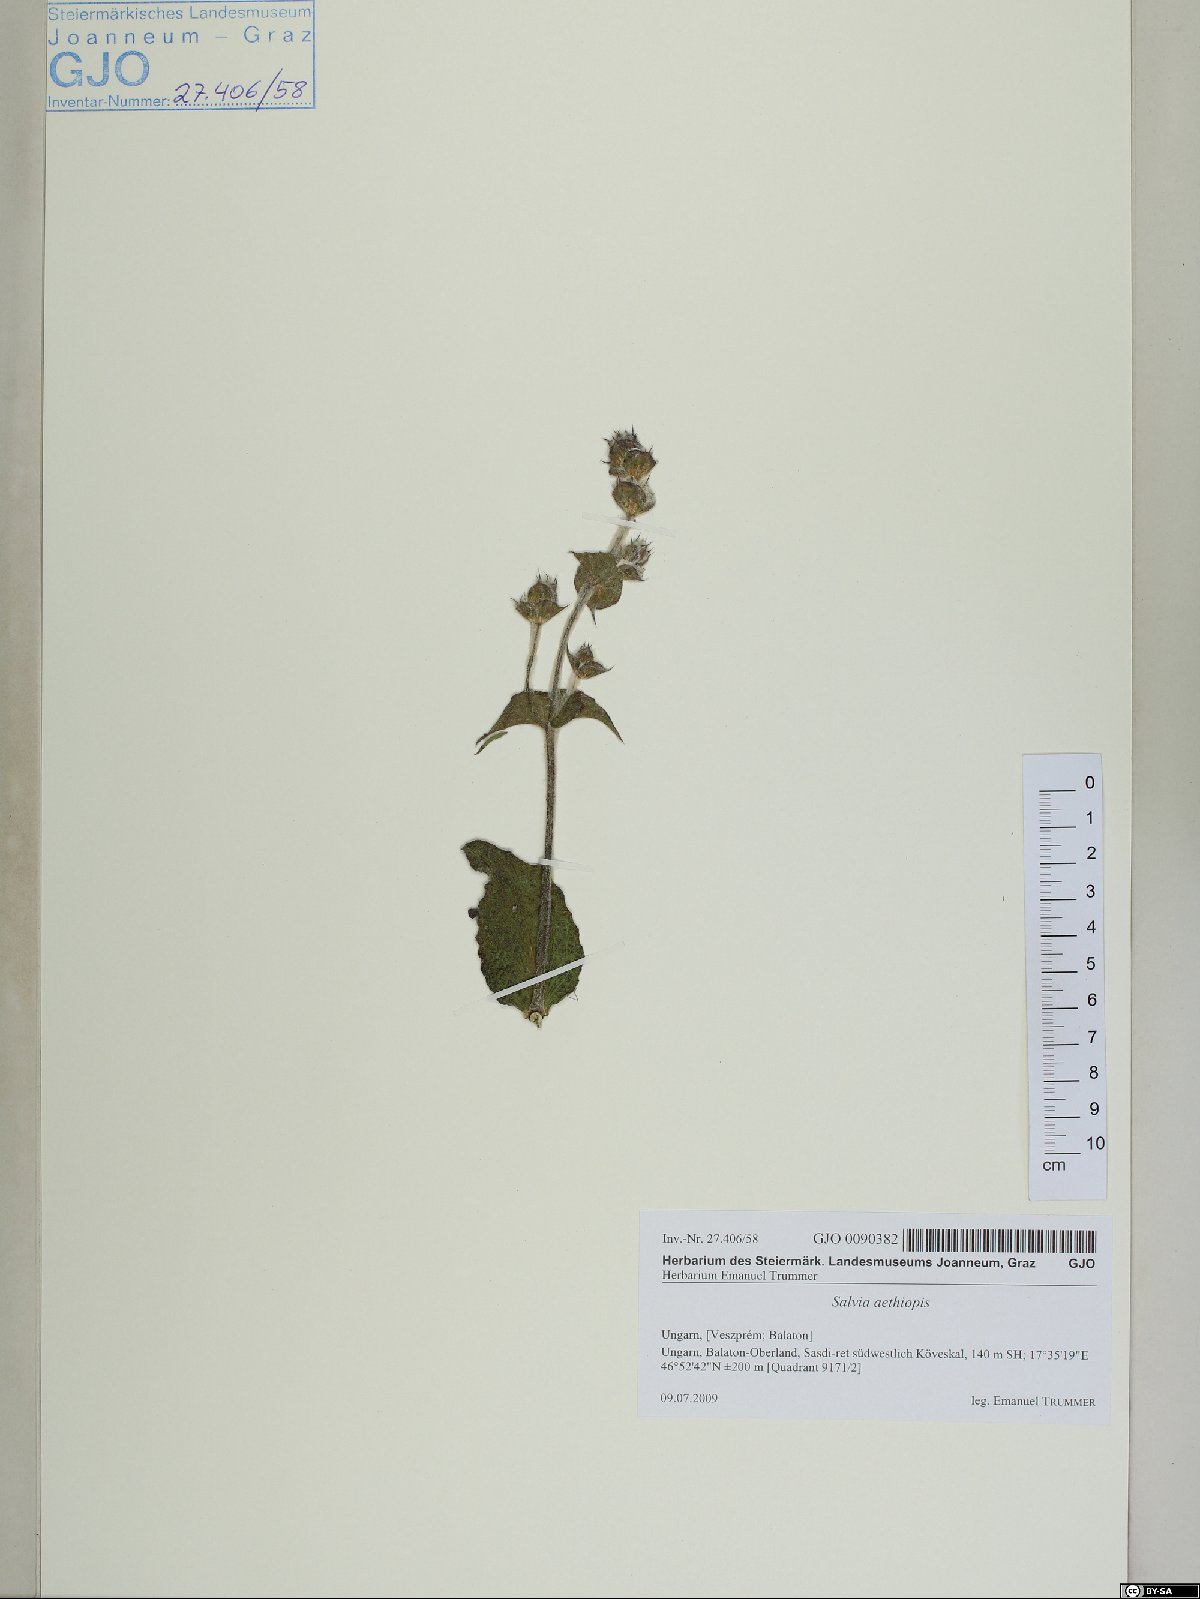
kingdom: Plantae
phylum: Tracheophyta
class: Magnoliopsida
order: Lamiales
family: Lamiaceae
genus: Salvia
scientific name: Salvia aethiopis
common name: Mediterranean sage
